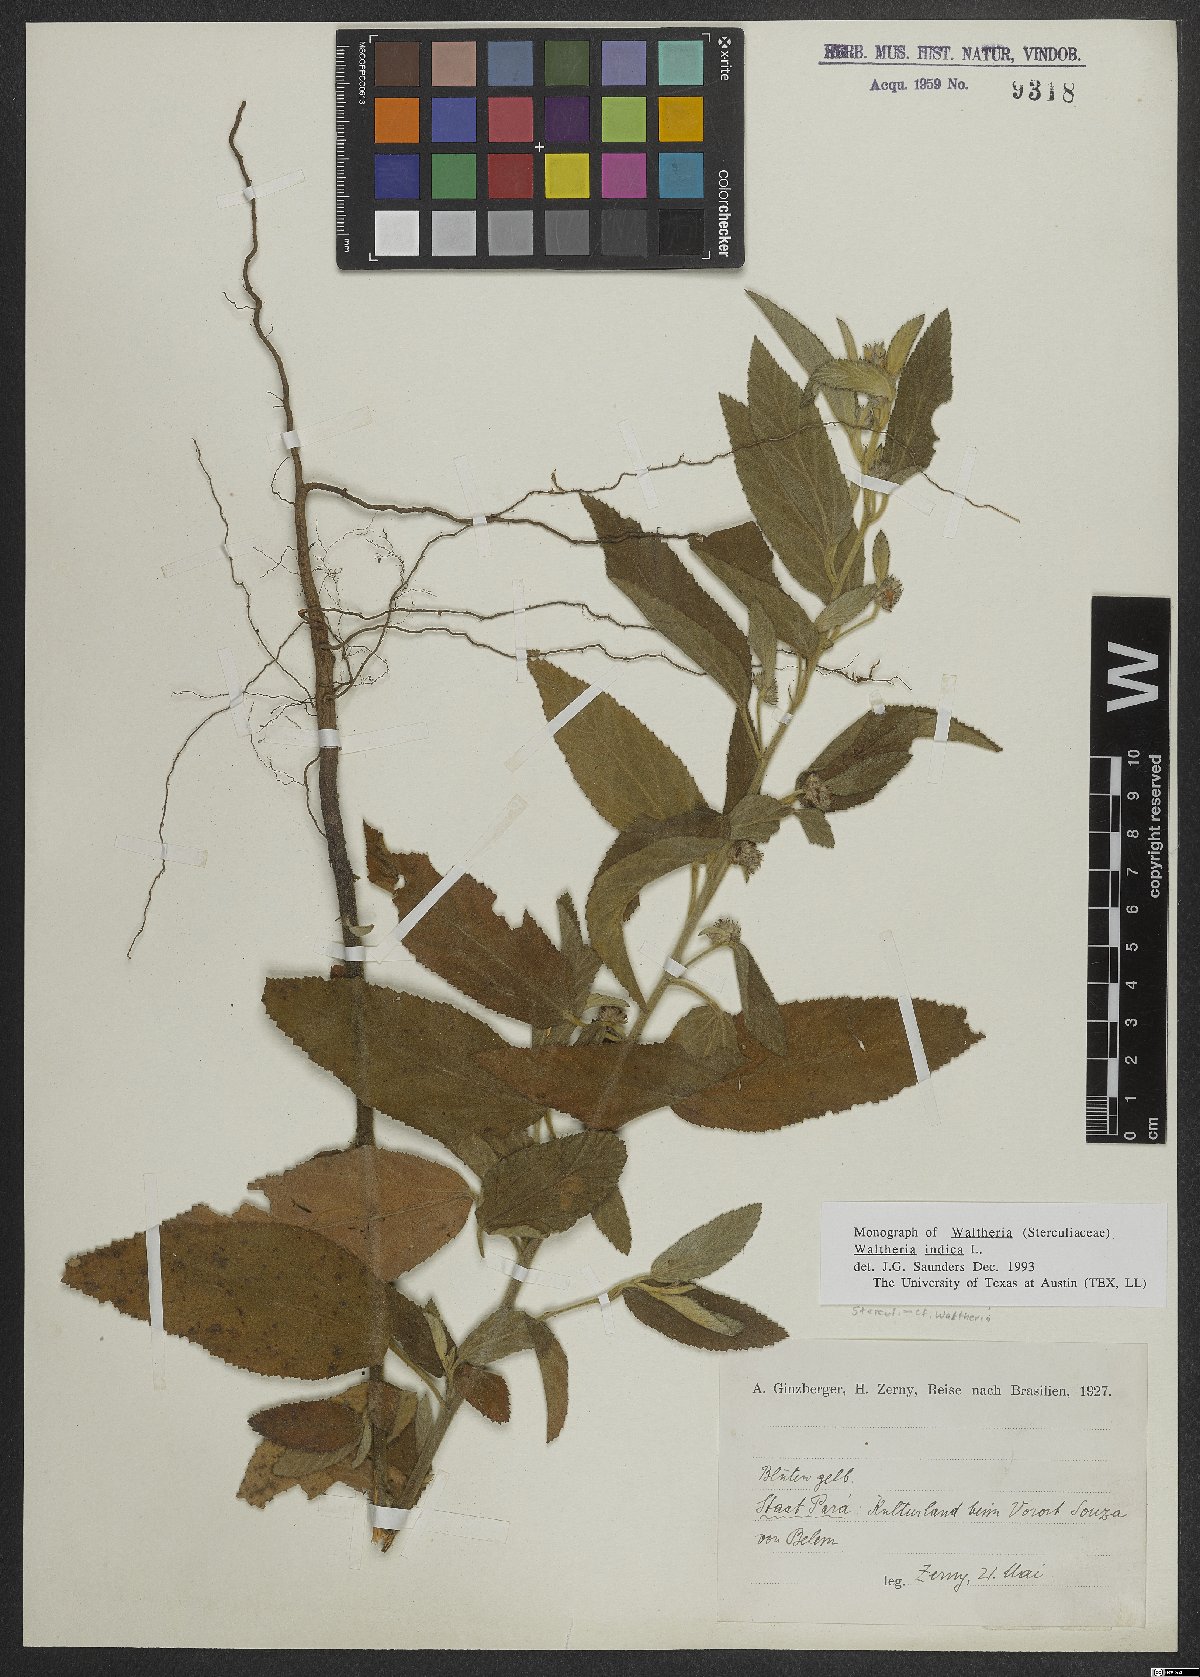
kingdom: Plantae
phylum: Tracheophyta
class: Magnoliopsida
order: Malvales
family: Malvaceae
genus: Waltheria
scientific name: Waltheria indica
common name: Leather-coat
